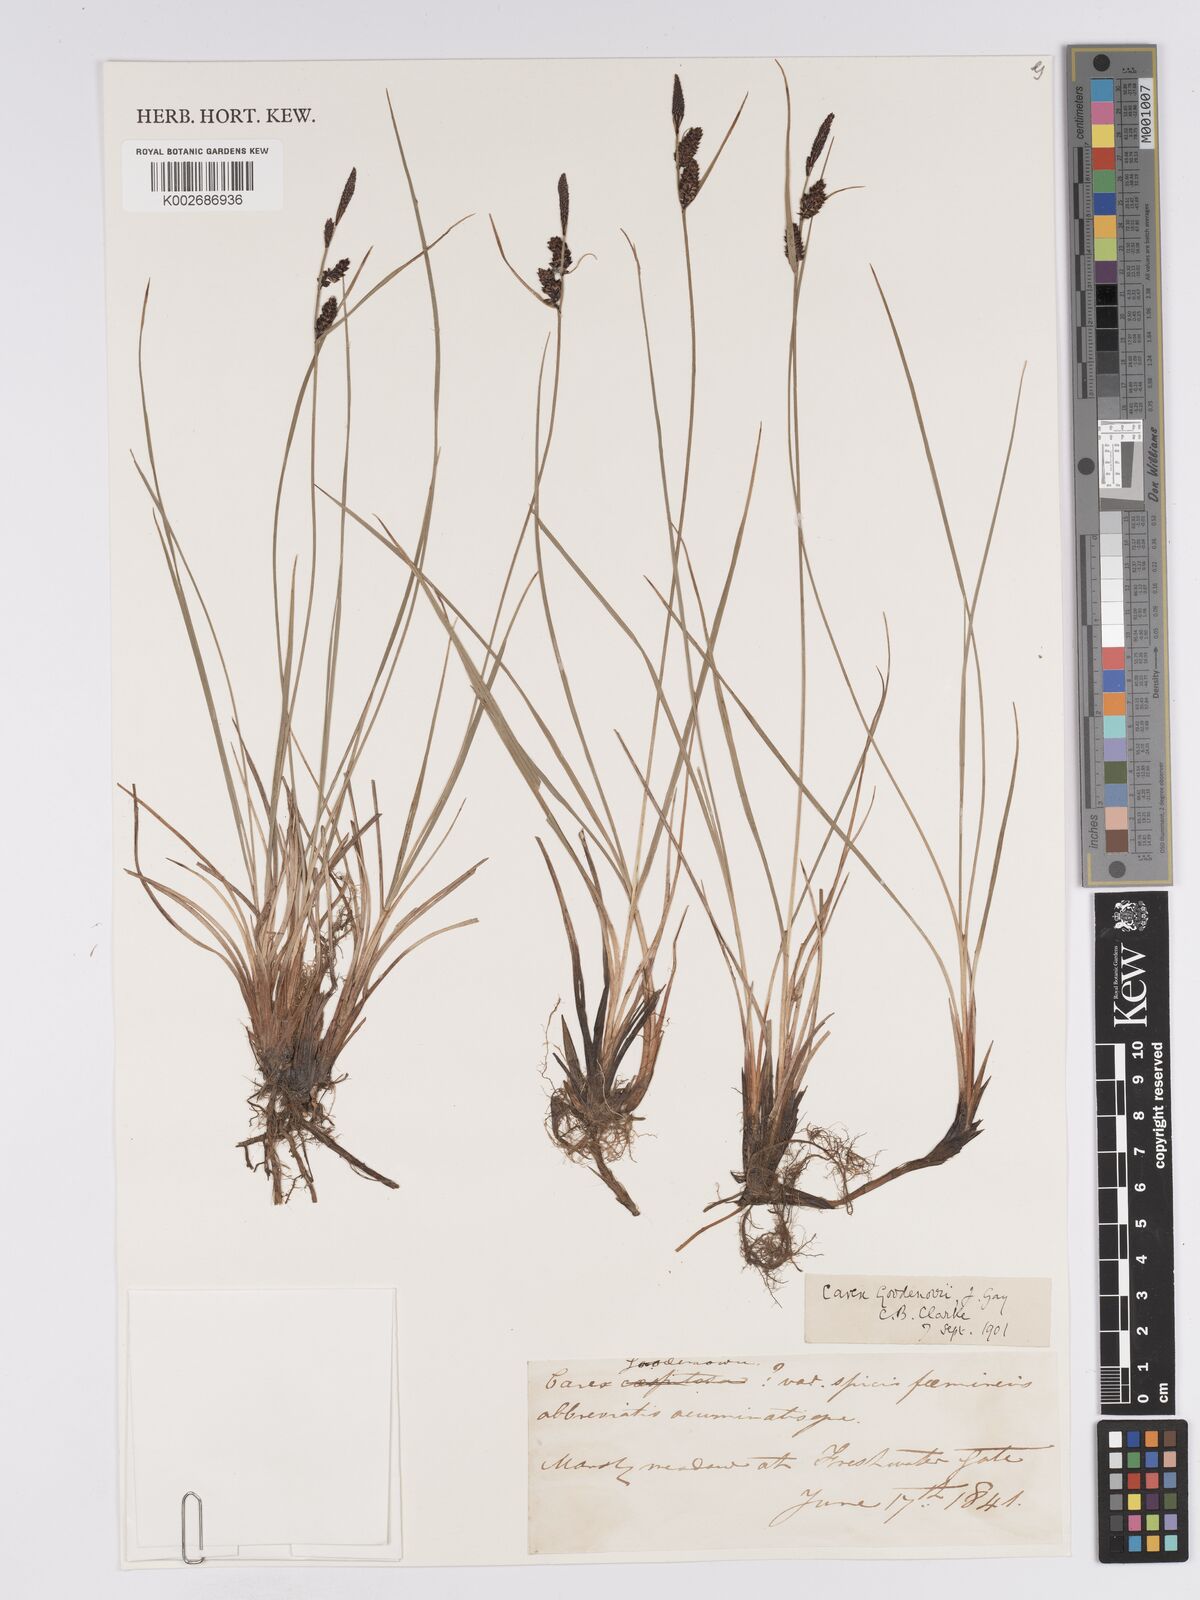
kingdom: Plantae
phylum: Tracheophyta
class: Liliopsida
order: Poales
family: Cyperaceae
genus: Carex
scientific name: Carex nigra
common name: Common sedge
